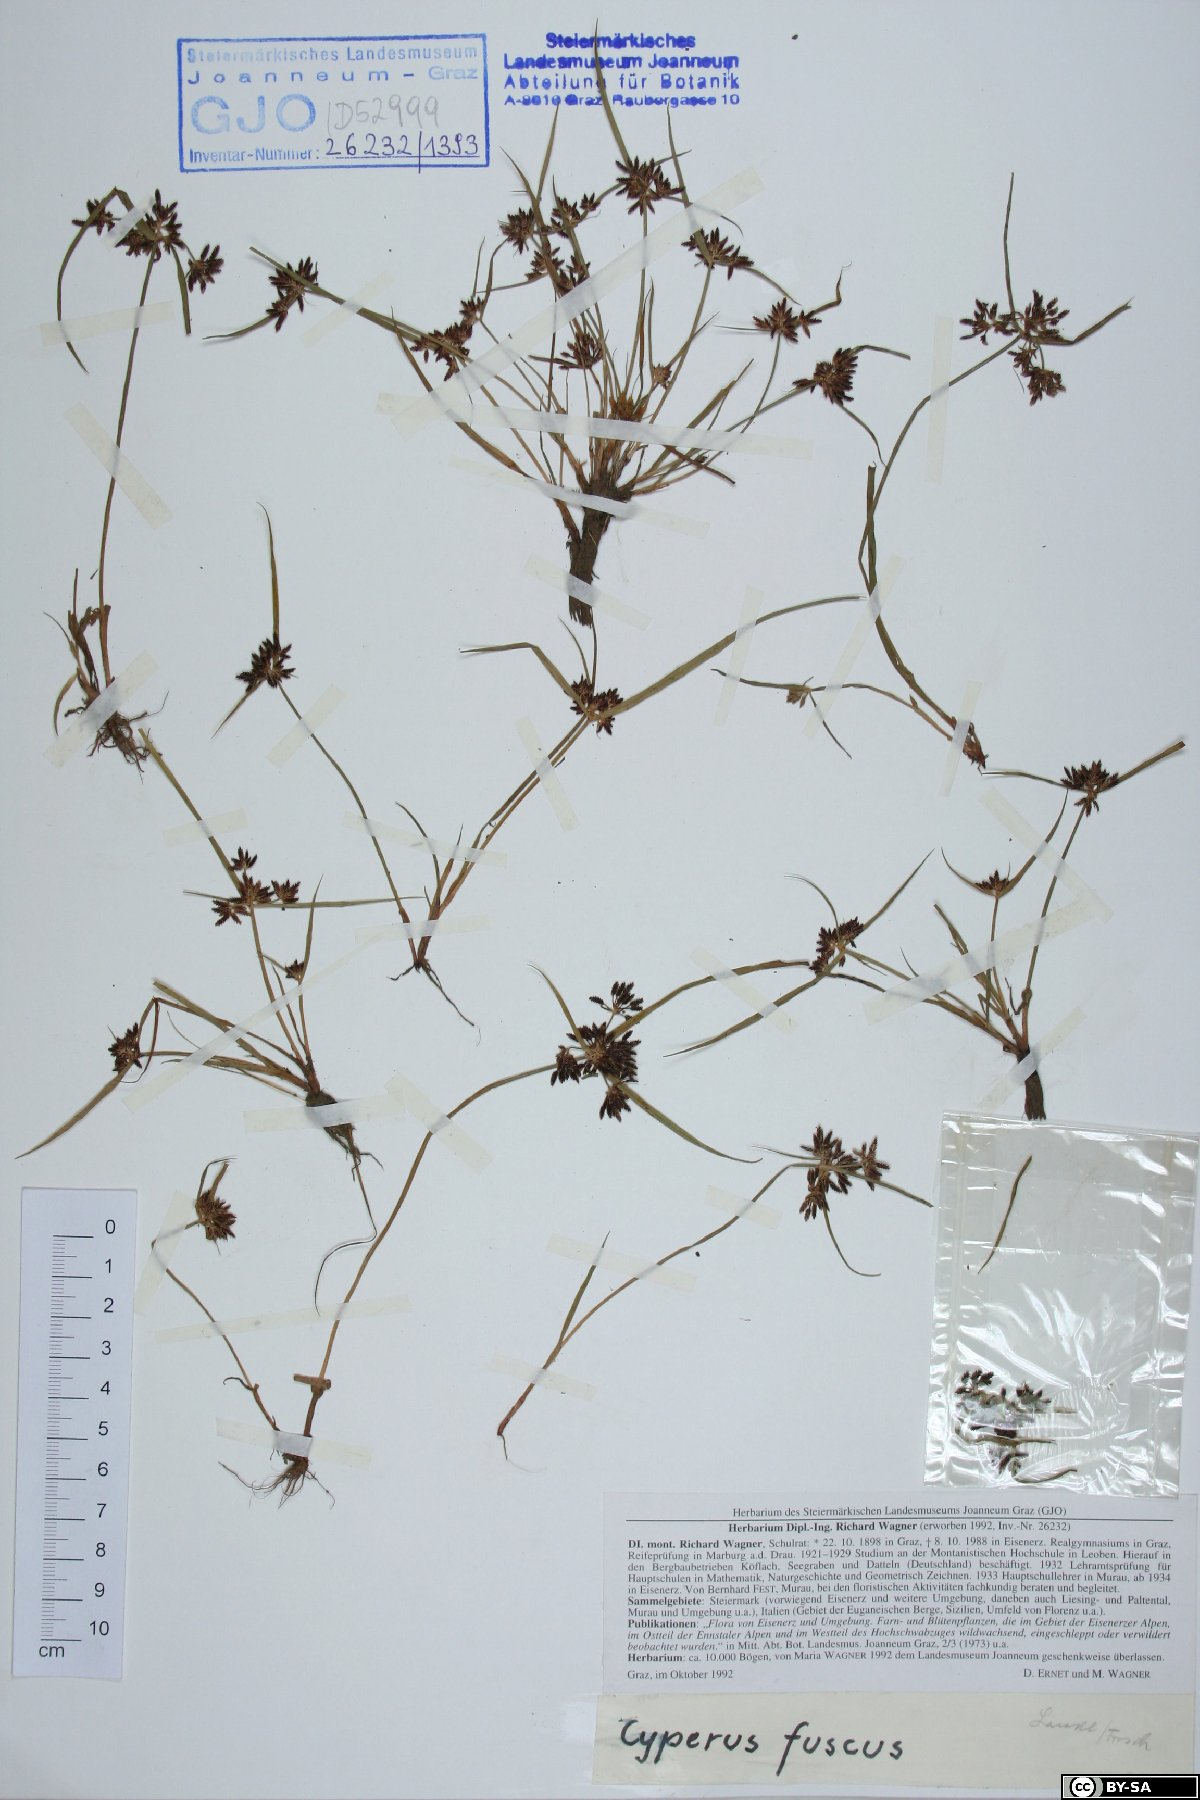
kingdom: Plantae
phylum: Tracheophyta
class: Liliopsida
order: Poales
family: Cyperaceae
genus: Cyperus
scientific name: Cyperus fuscus
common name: Brown galingale
